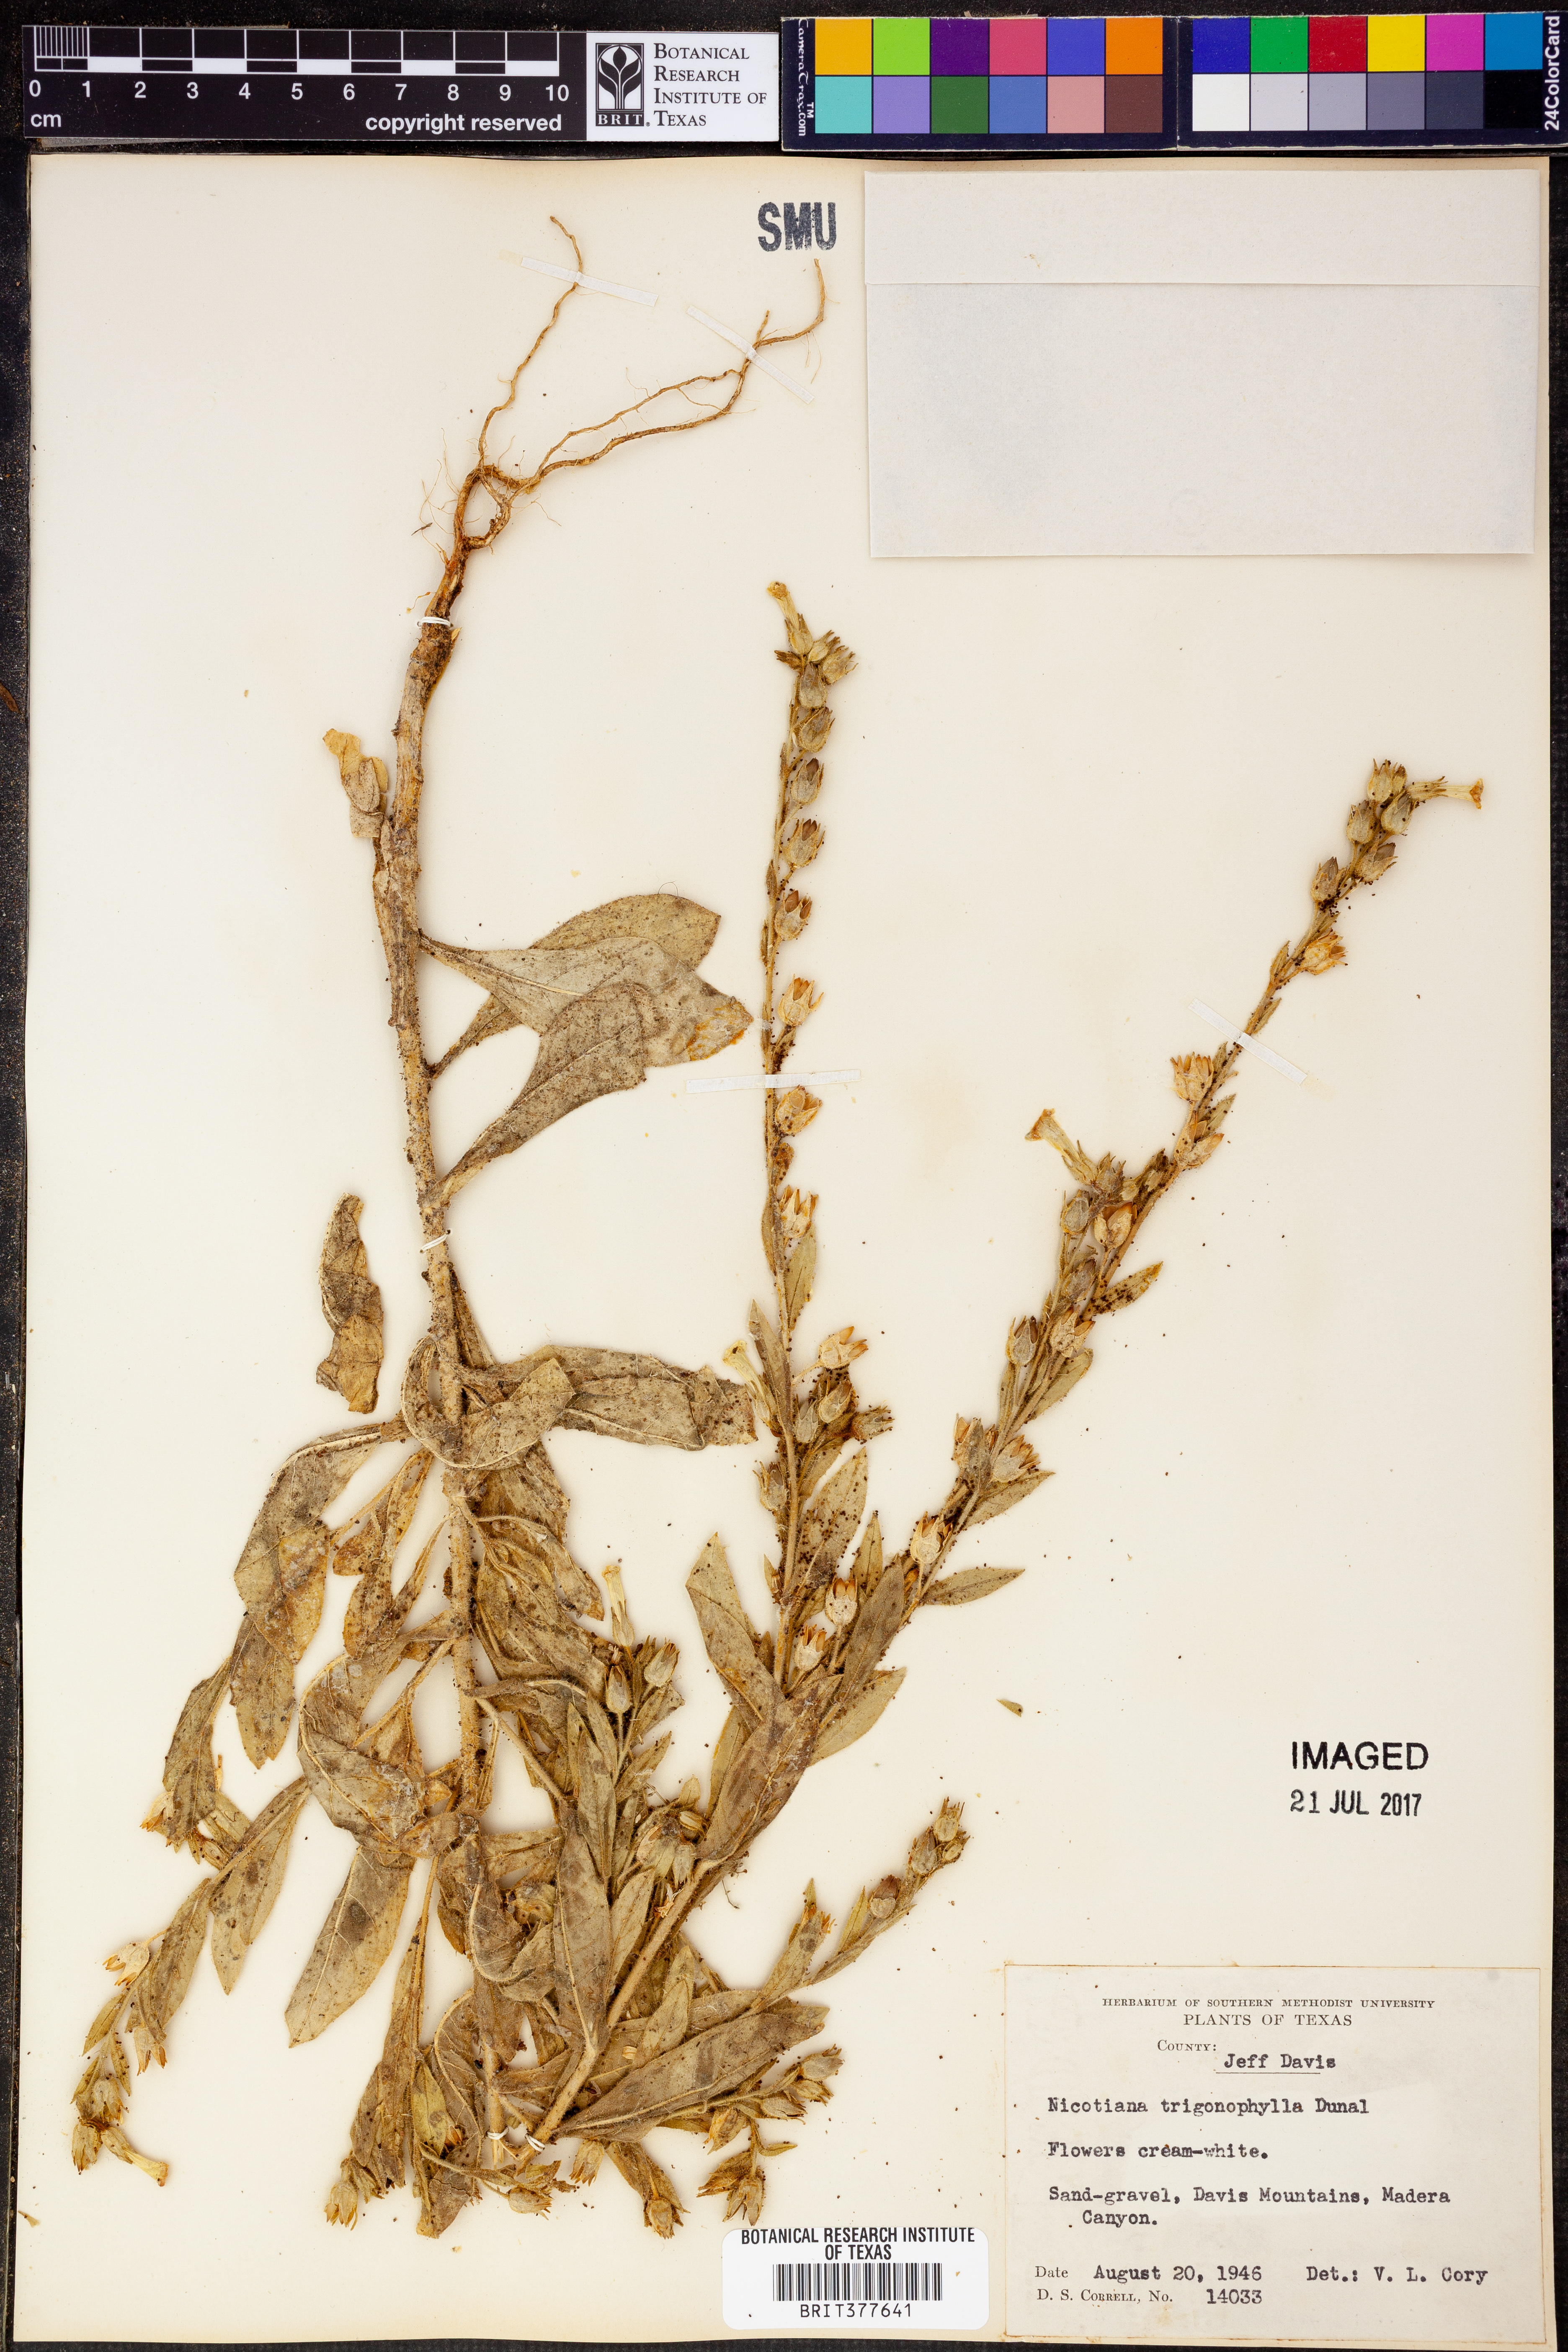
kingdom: Plantae
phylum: Tracheophyta
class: Magnoliopsida
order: Solanales
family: Solanaceae
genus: Nicotiana
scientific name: Nicotiana obtusifolia
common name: Desert tobacco
